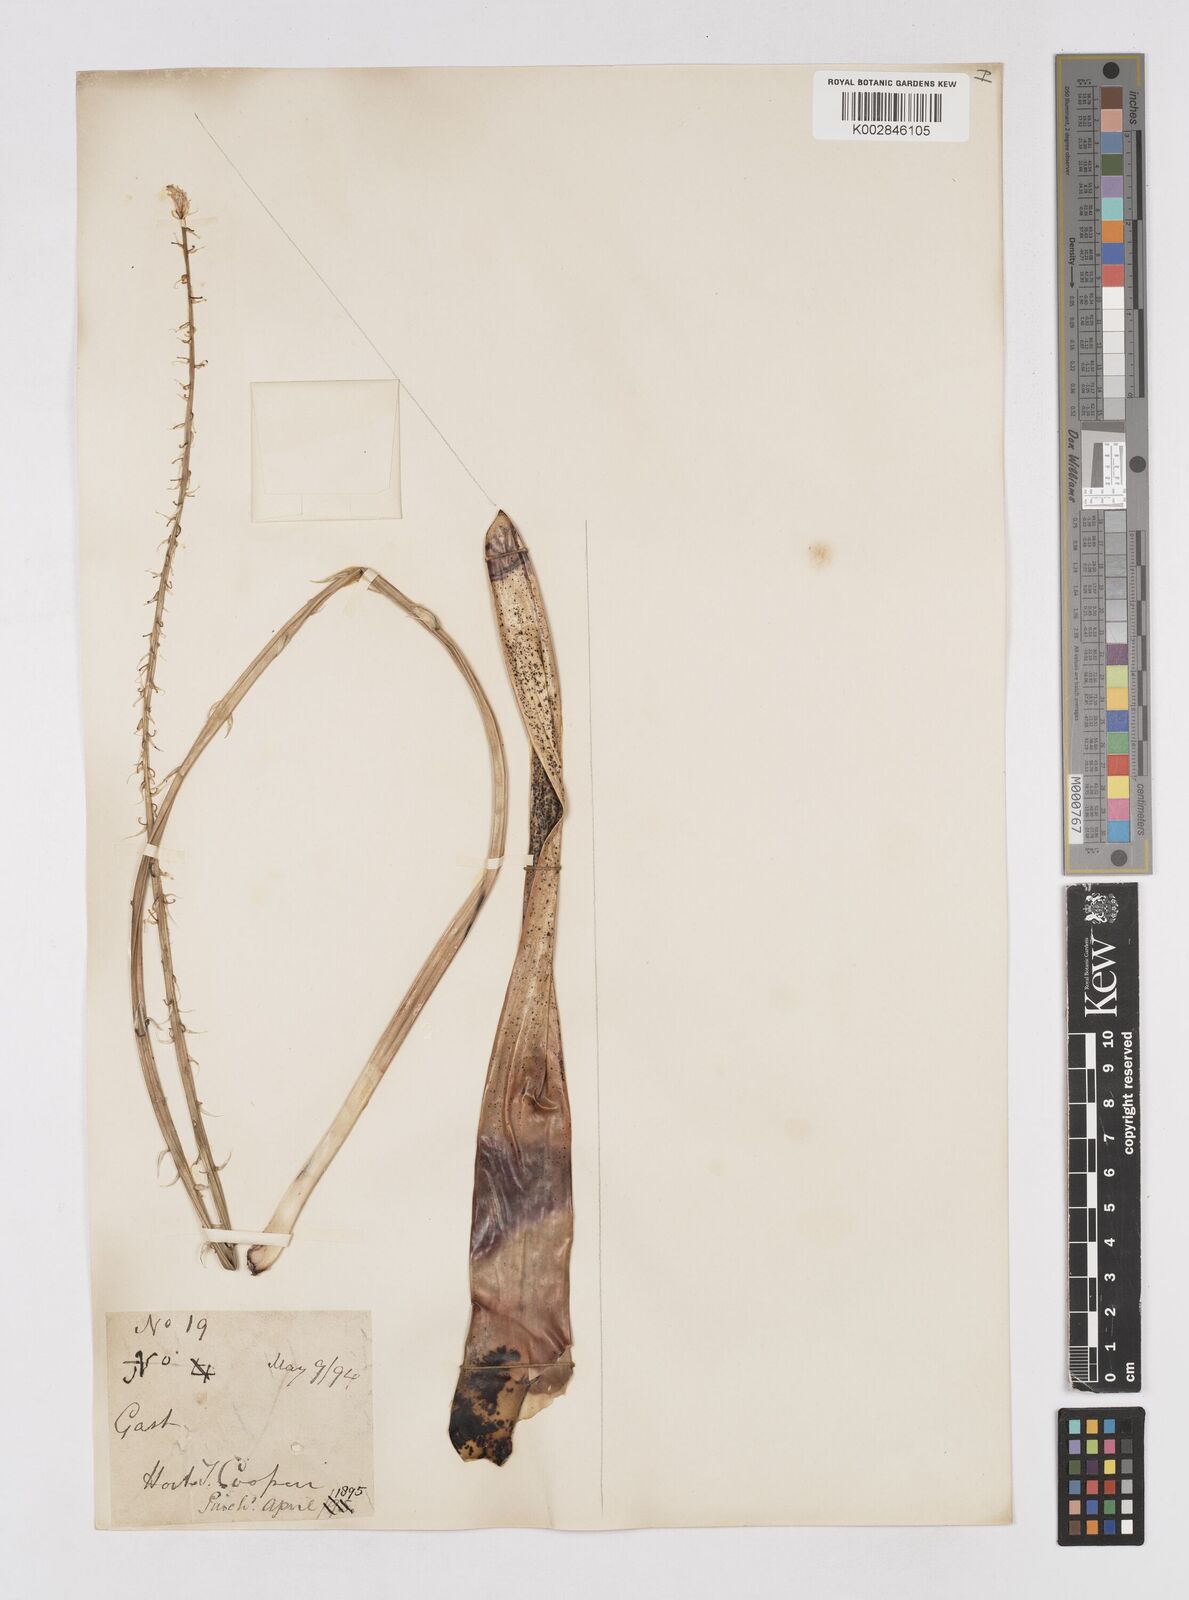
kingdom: Plantae
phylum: Tracheophyta
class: Liliopsida
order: Asparagales
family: Asphodelaceae
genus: Gasteria
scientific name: Gasteria
